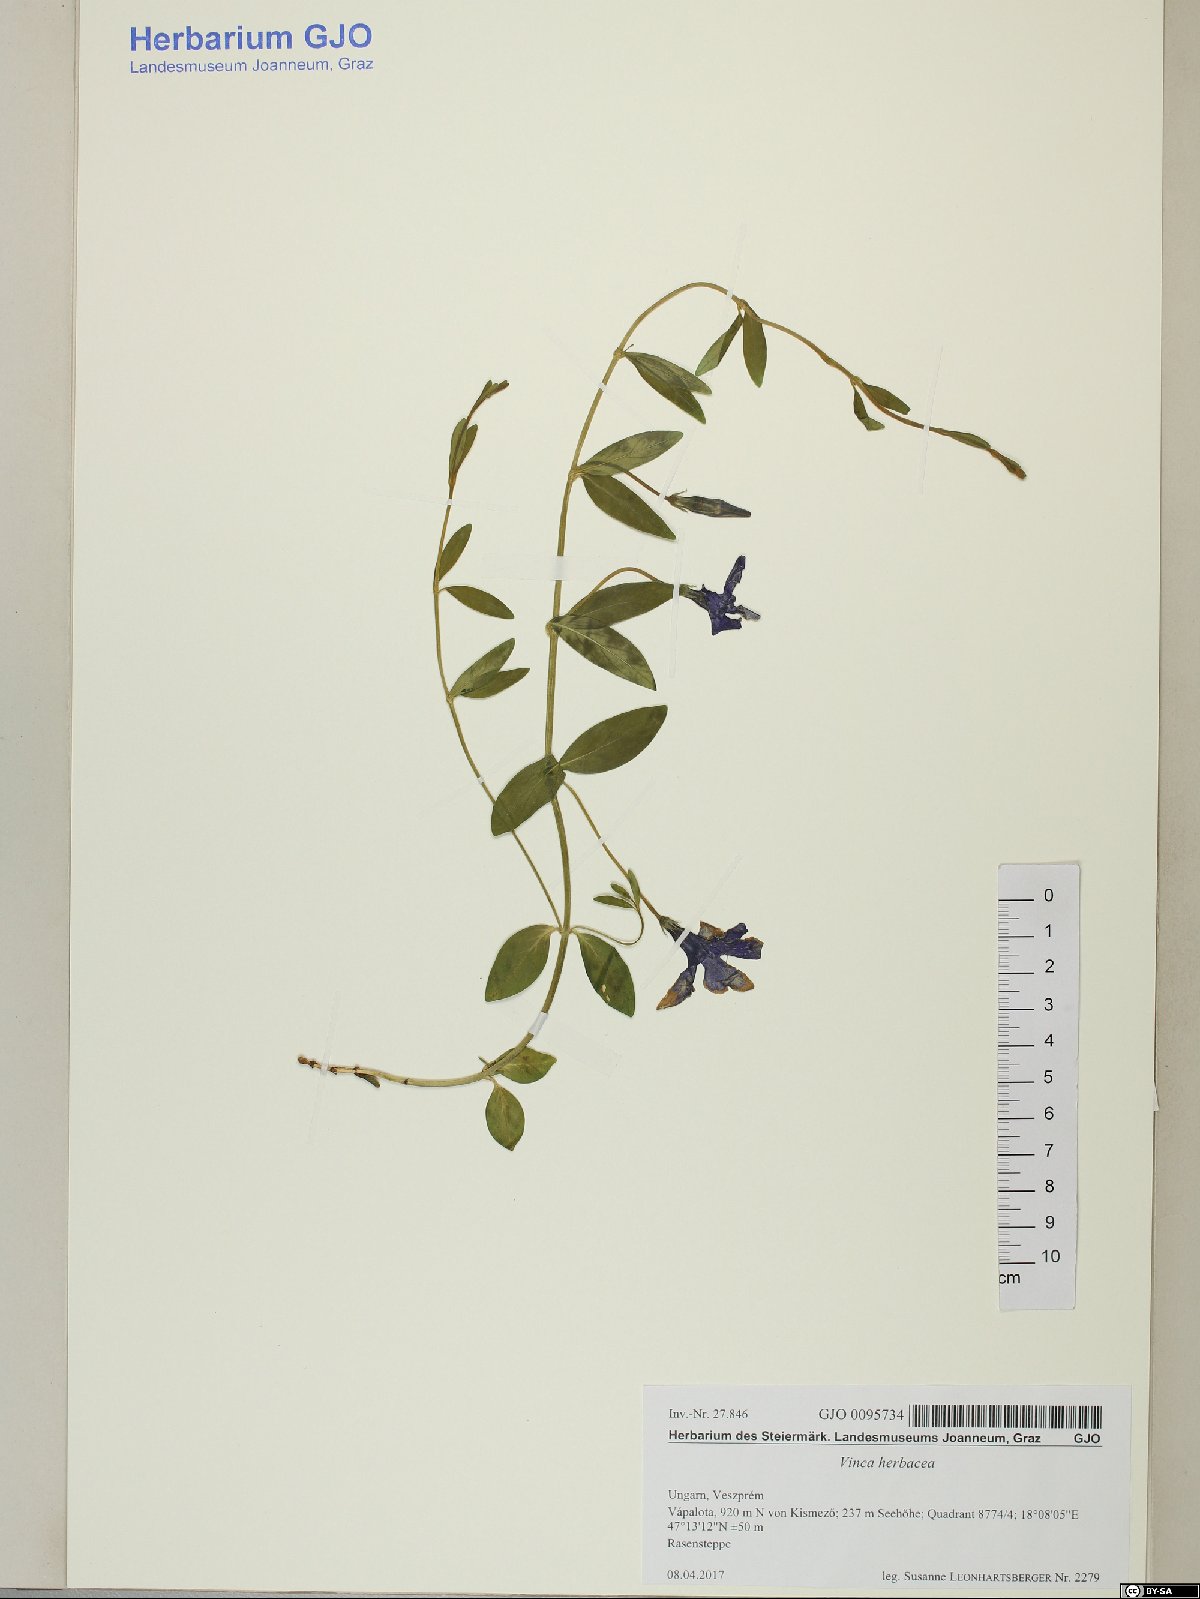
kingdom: Plantae
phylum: Tracheophyta
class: Magnoliopsida
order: Gentianales
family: Apocynaceae
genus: Vinca
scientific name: Vinca herbacea
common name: Herbaceous periwinkle
